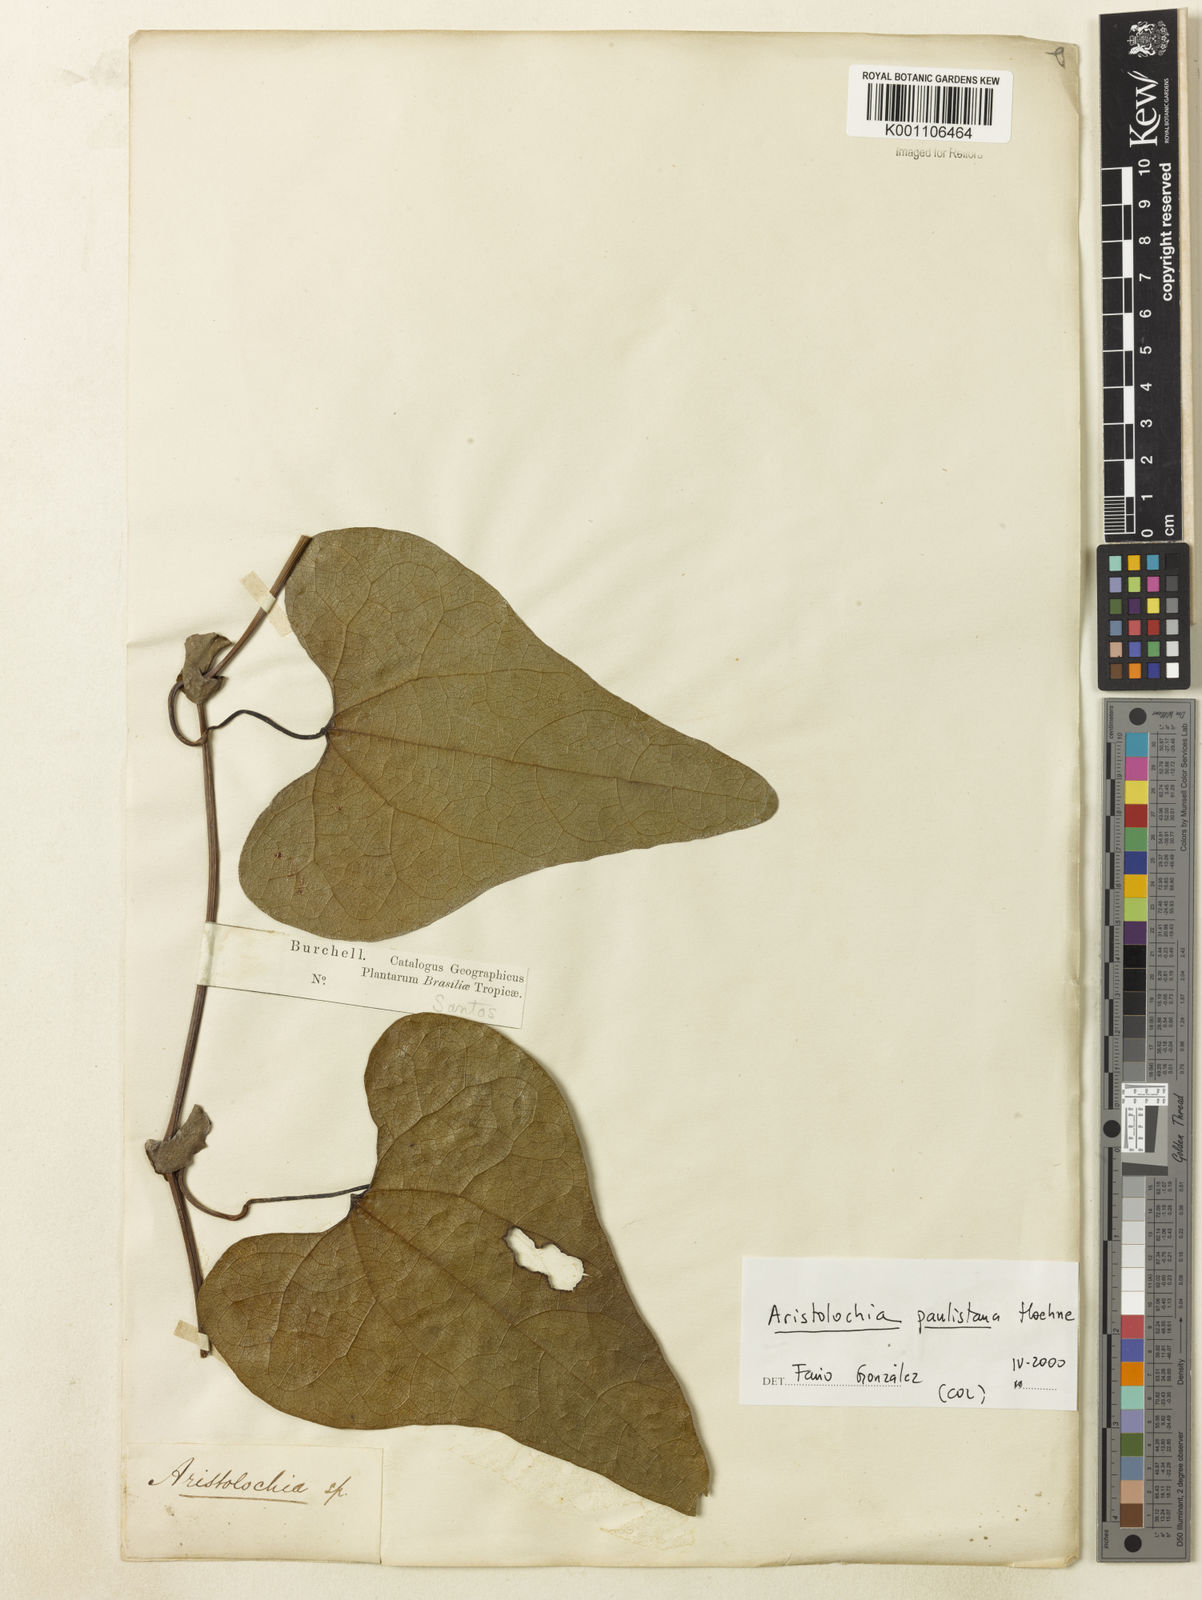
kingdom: Plantae
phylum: Tracheophyta
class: Magnoliopsida
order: Piperales
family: Aristolochiaceae
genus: Aristolochia
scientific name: Aristolochia paulistana
